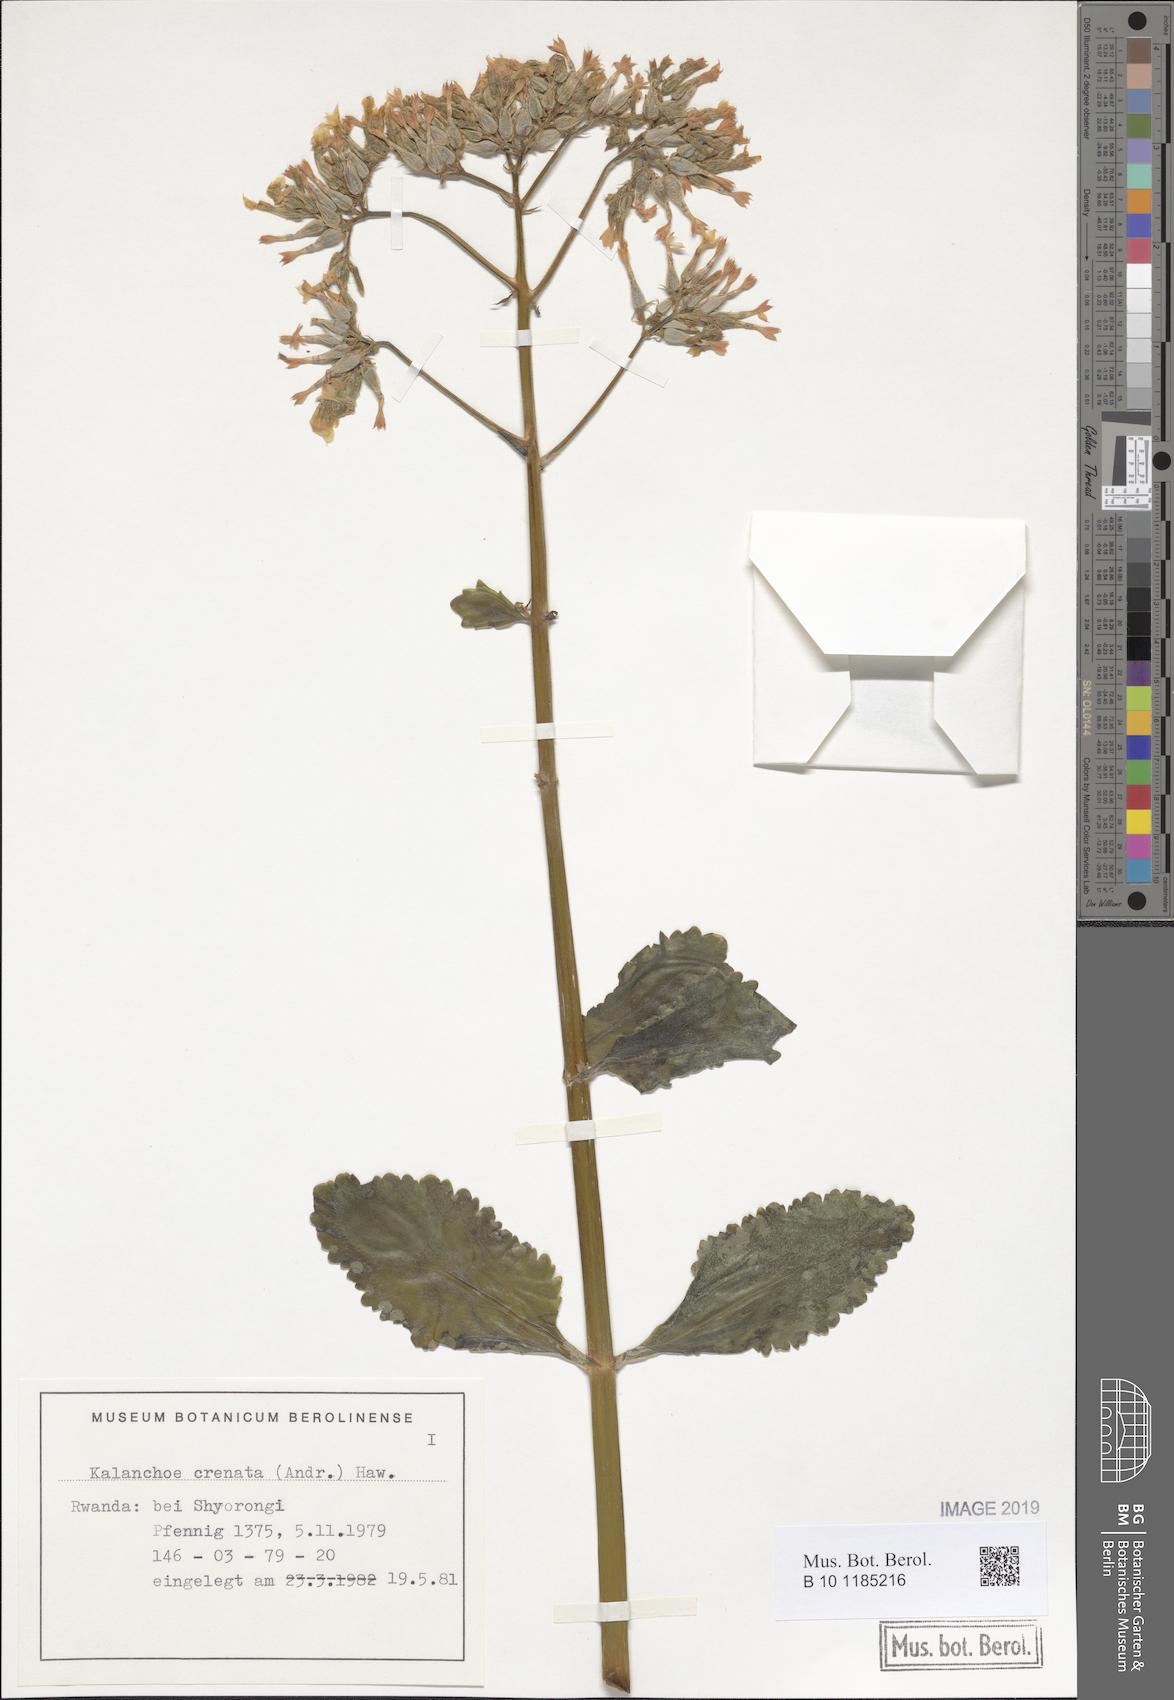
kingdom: Plantae
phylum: Tracheophyta
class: Magnoliopsida
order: Saxifragales
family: Crassulaceae
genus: Kalanchoe
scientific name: Kalanchoe crenata
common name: Neverdie
